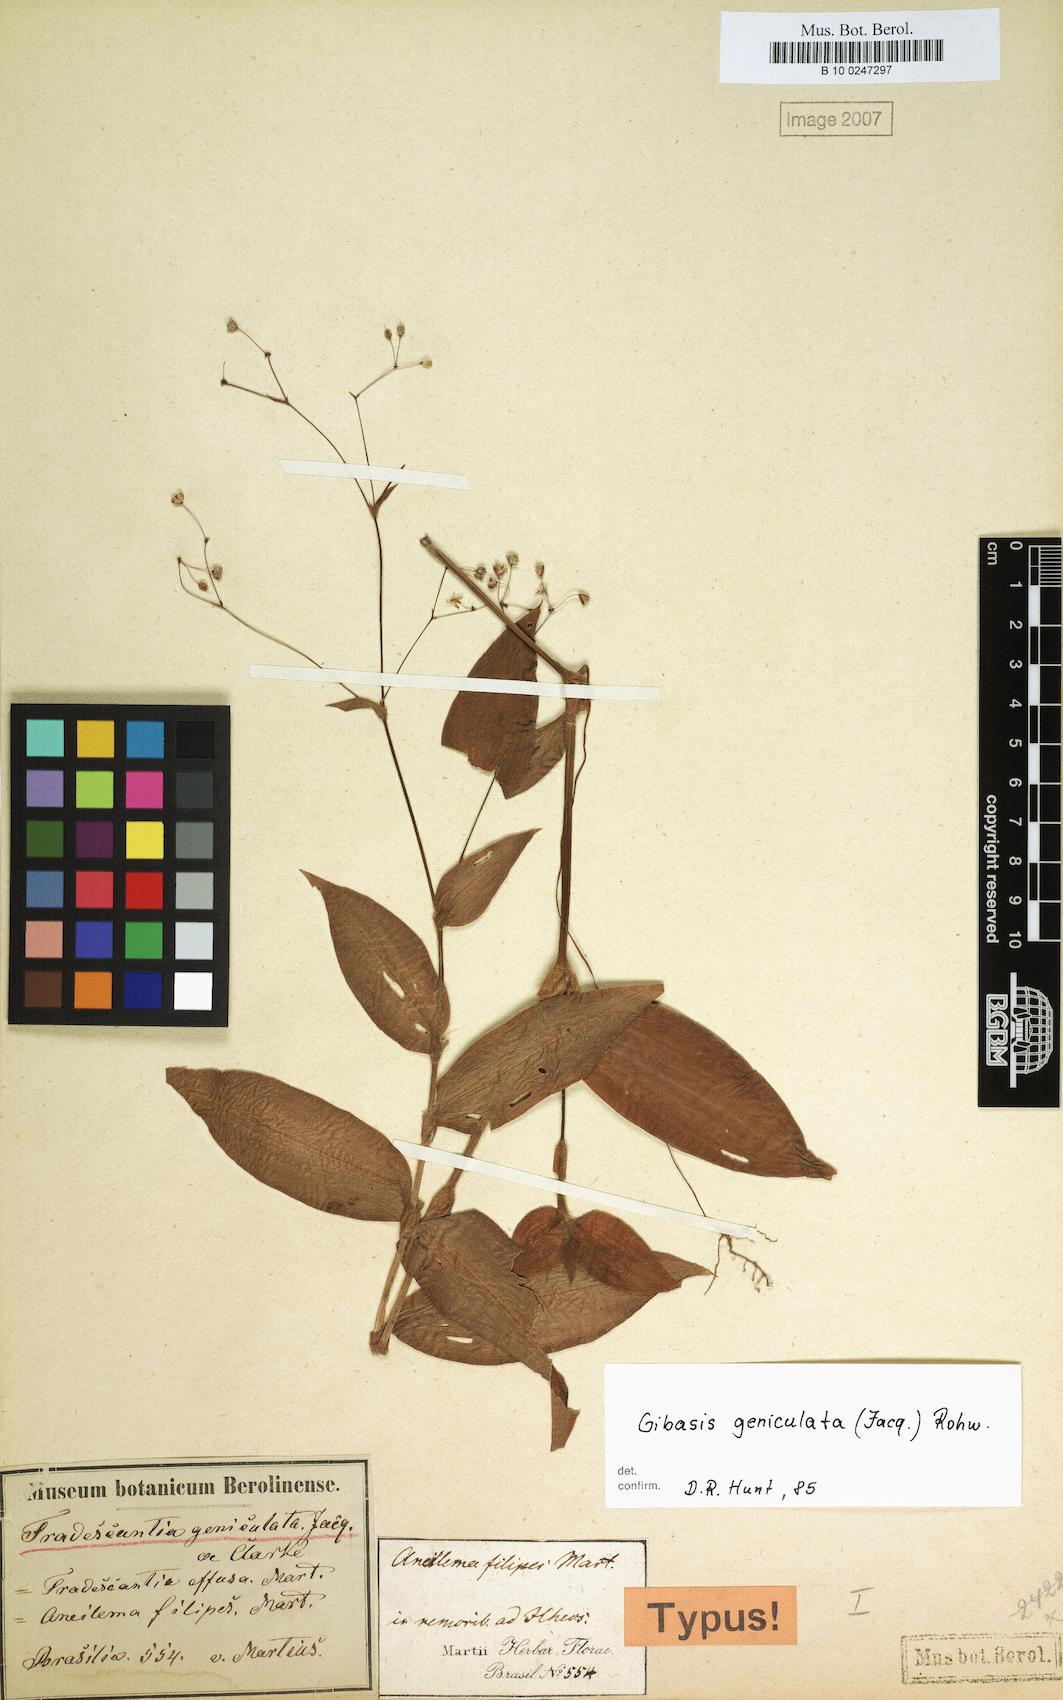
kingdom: Plantae
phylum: Tracheophyta
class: Liliopsida
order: Commelinales
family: Commelinaceae
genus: Gibasis
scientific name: Gibasis geniculata
